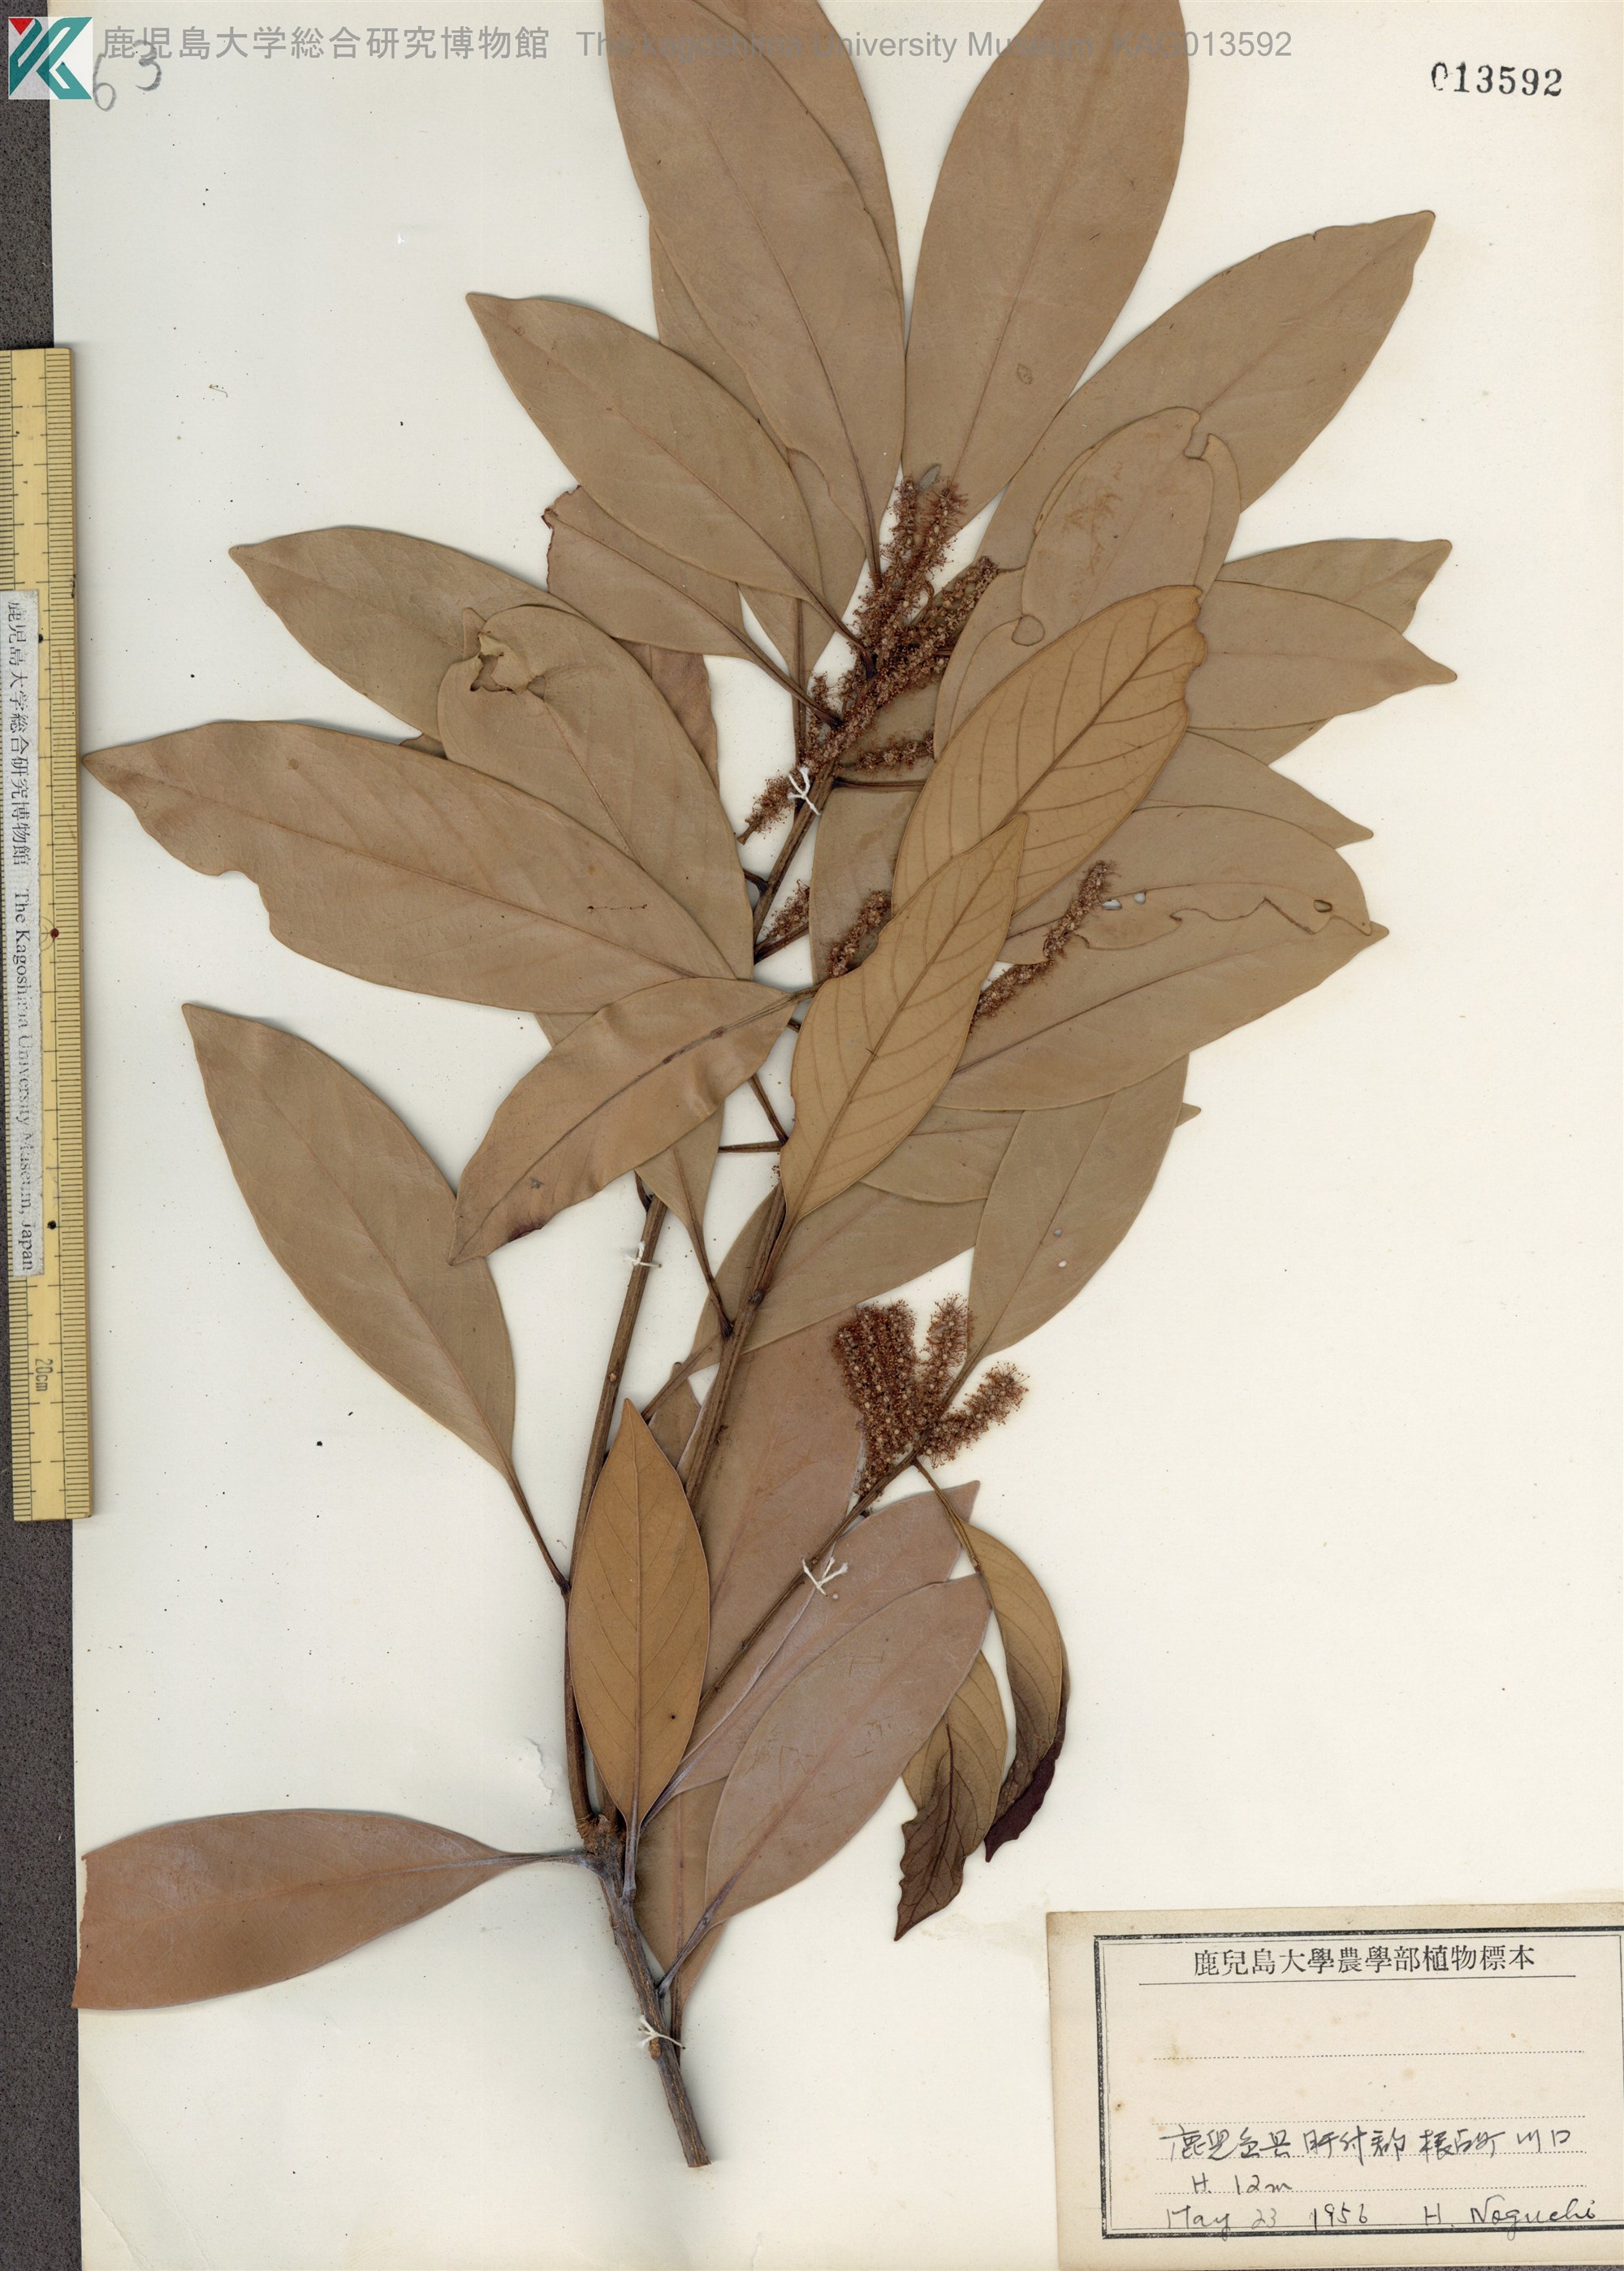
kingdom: Plantae
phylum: Tracheophyta
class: Magnoliopsida
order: Fagales
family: Fagaceae
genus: Lithocarpus
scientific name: Lithocarpus edulis
